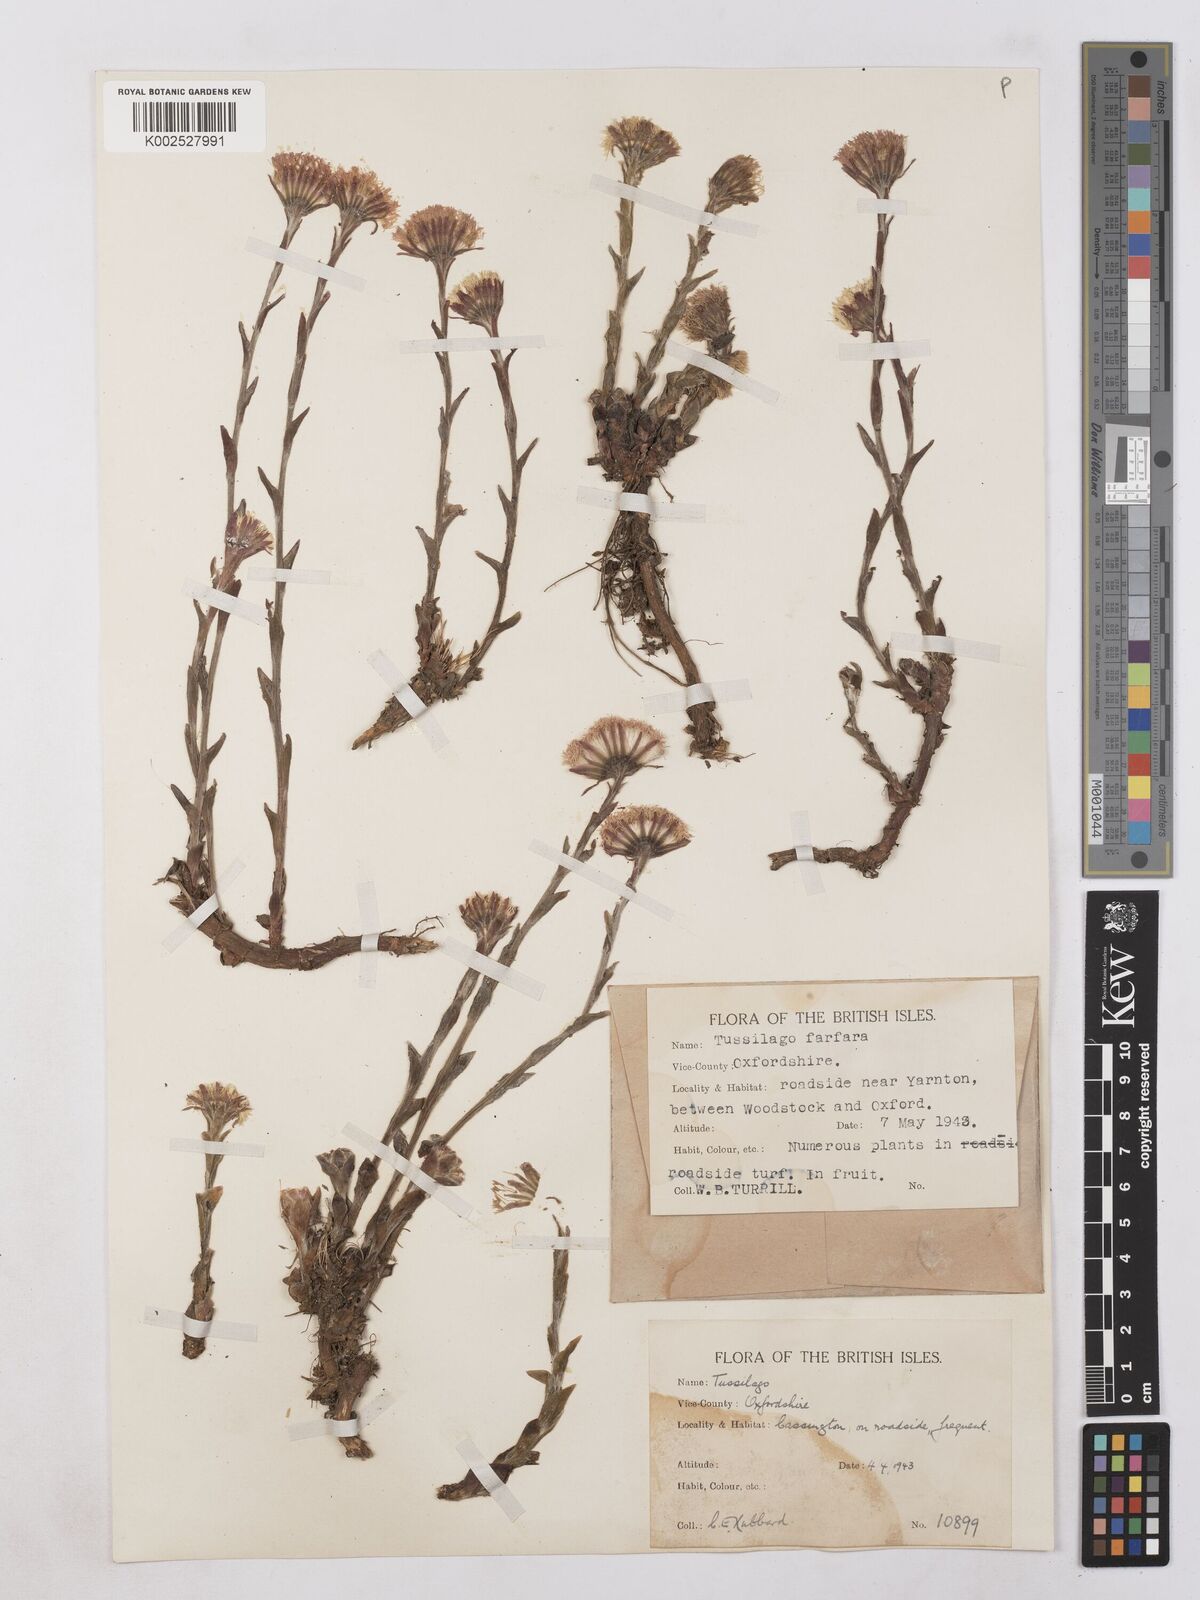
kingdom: Plantae
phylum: Tracheophyta
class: Magnoliopsida
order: Asterales
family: Asteraceae
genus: Tussilago
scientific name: Tussilago
